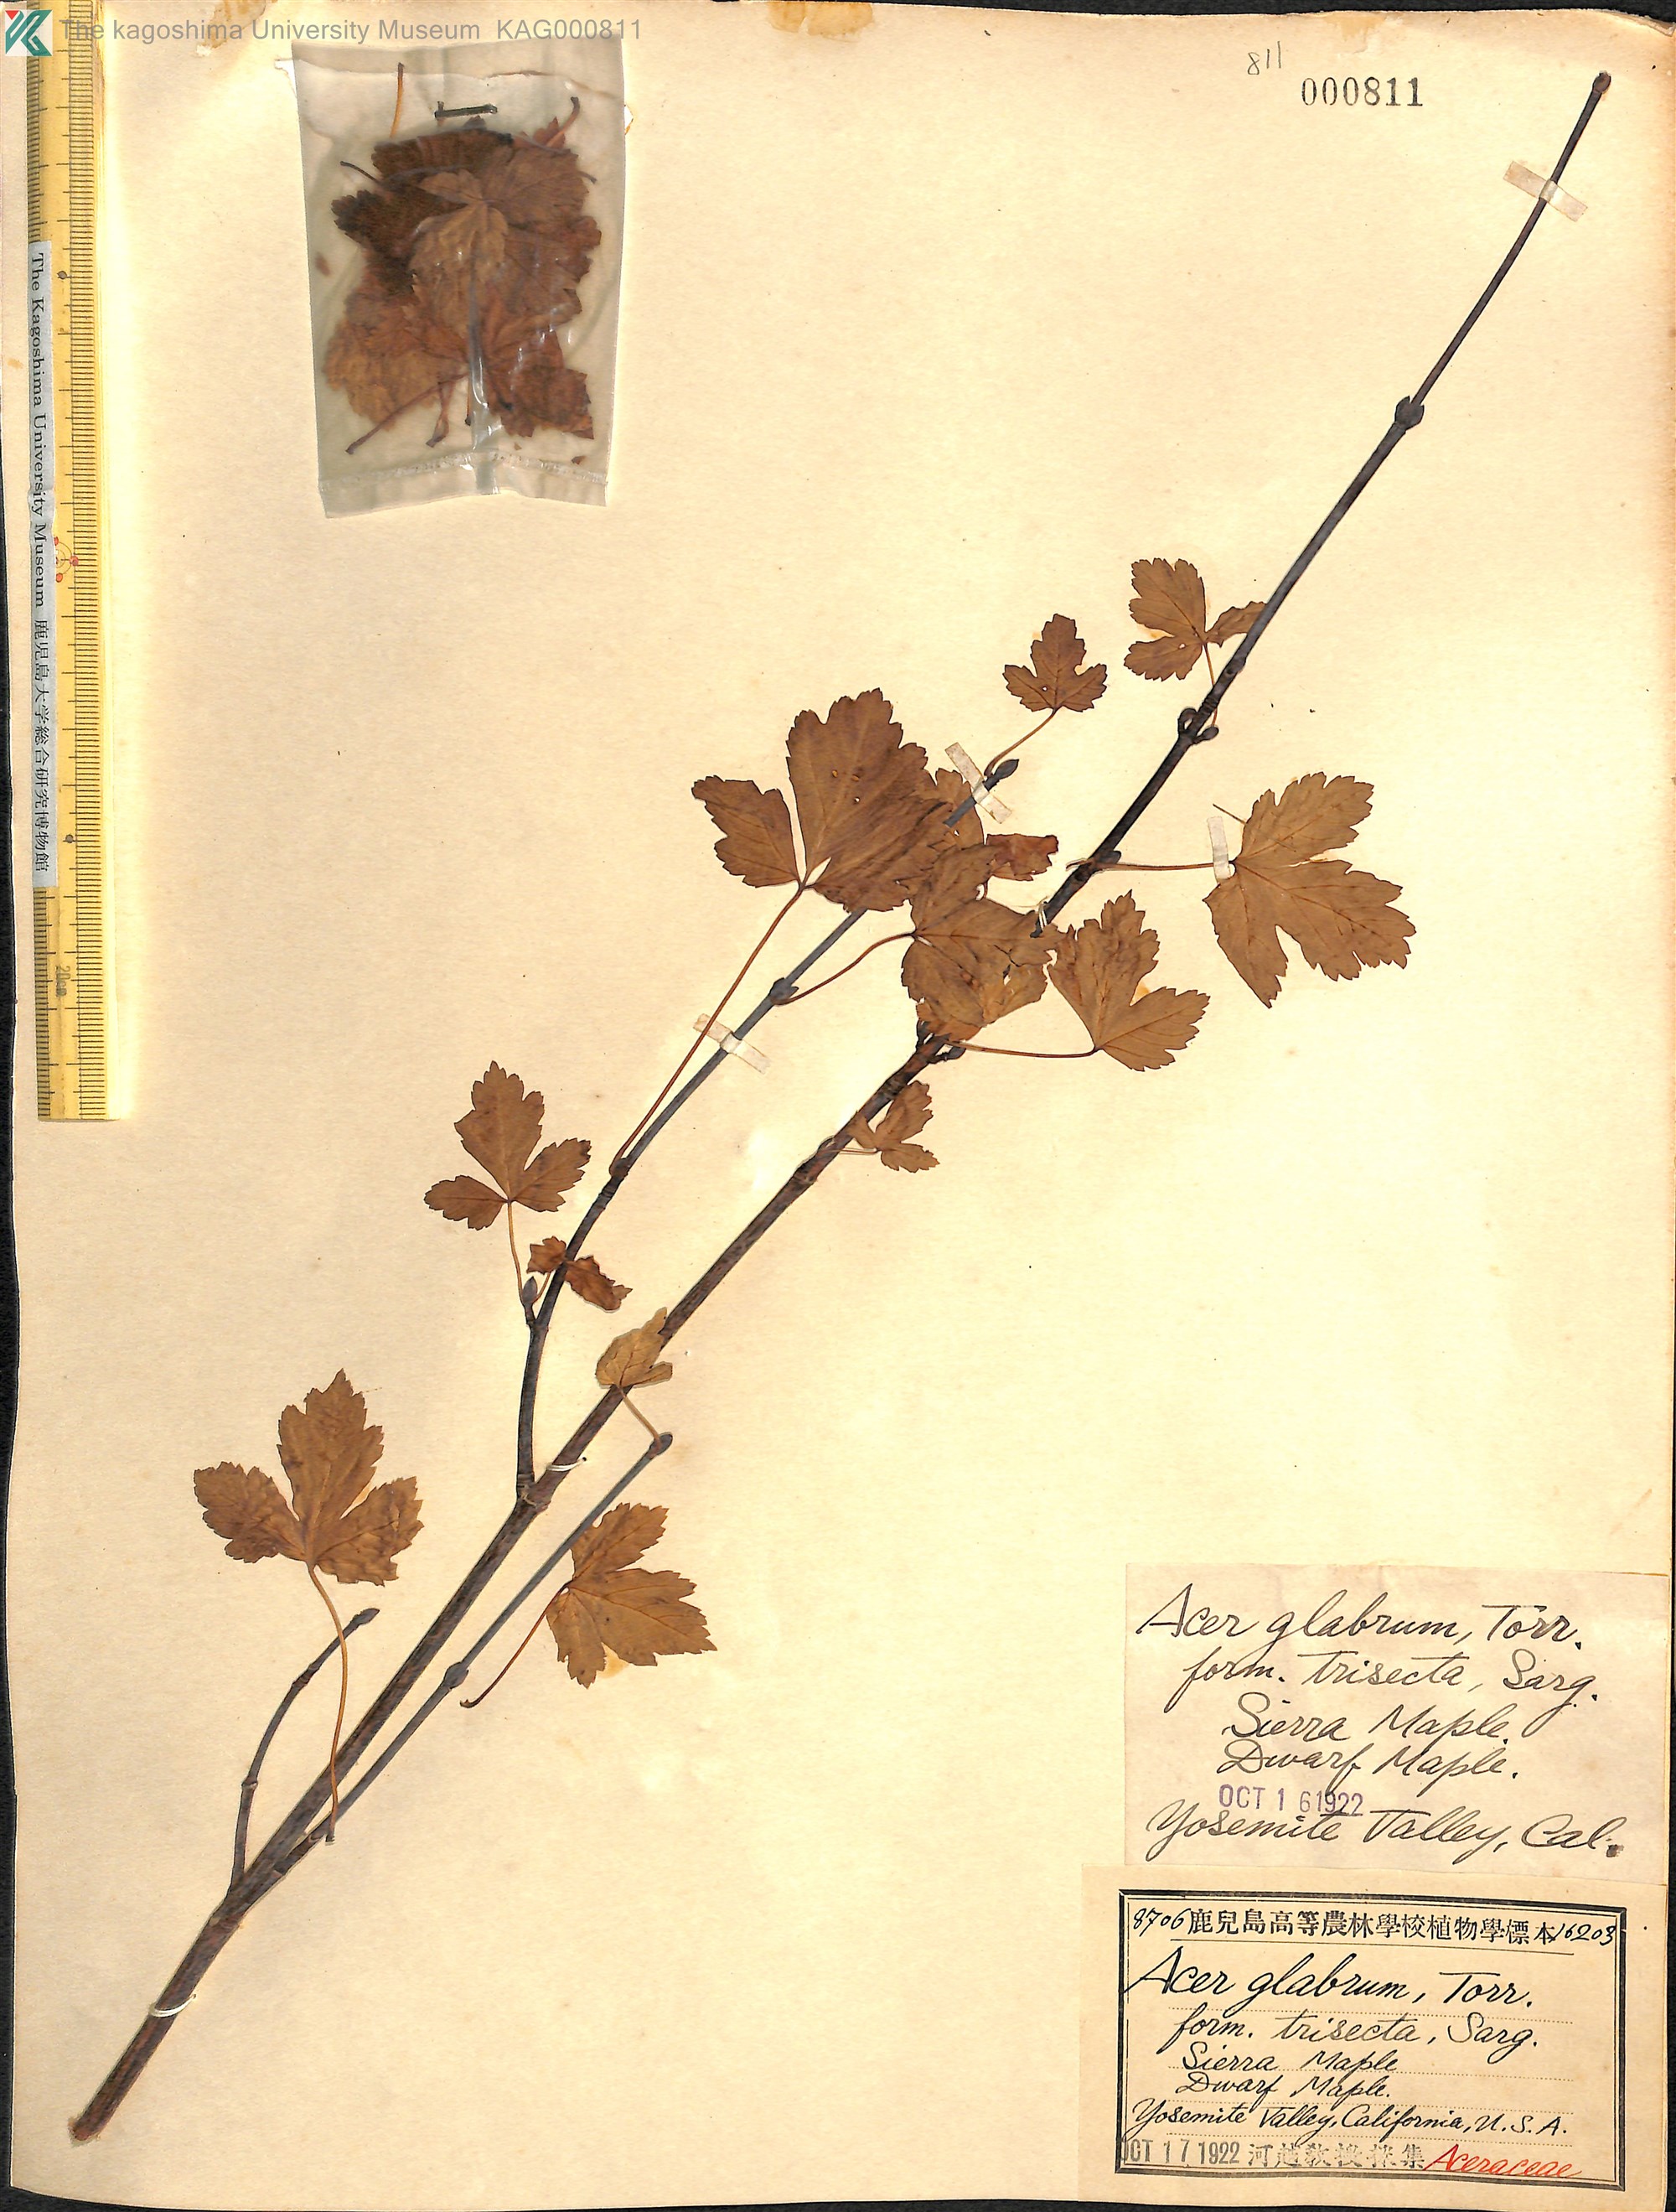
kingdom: Plantae
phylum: Tracheophyta
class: Magnoliopsida
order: Sapindales
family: Sapindaceae
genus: Acer
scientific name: Acer glabrum
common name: Rocky mountain maple
